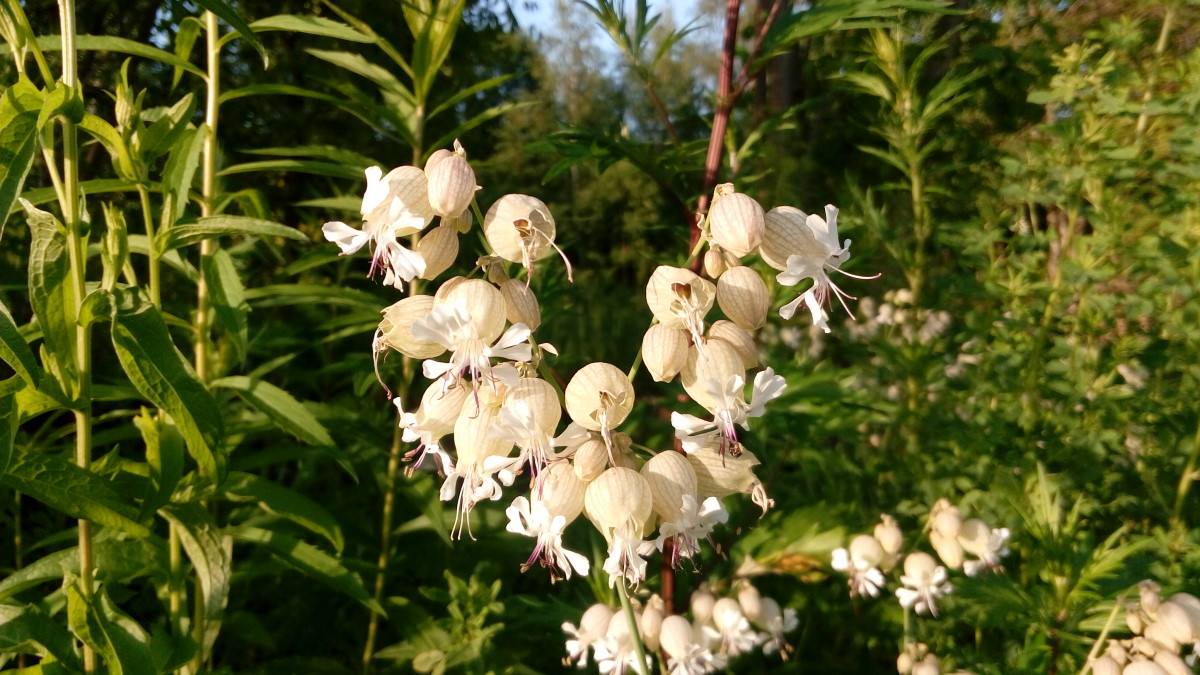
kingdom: Plantae
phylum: Tracheophyta
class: Magnoliopsida
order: Caryophyllales
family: Caryophyllaceae
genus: Silene
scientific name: Silene behen
